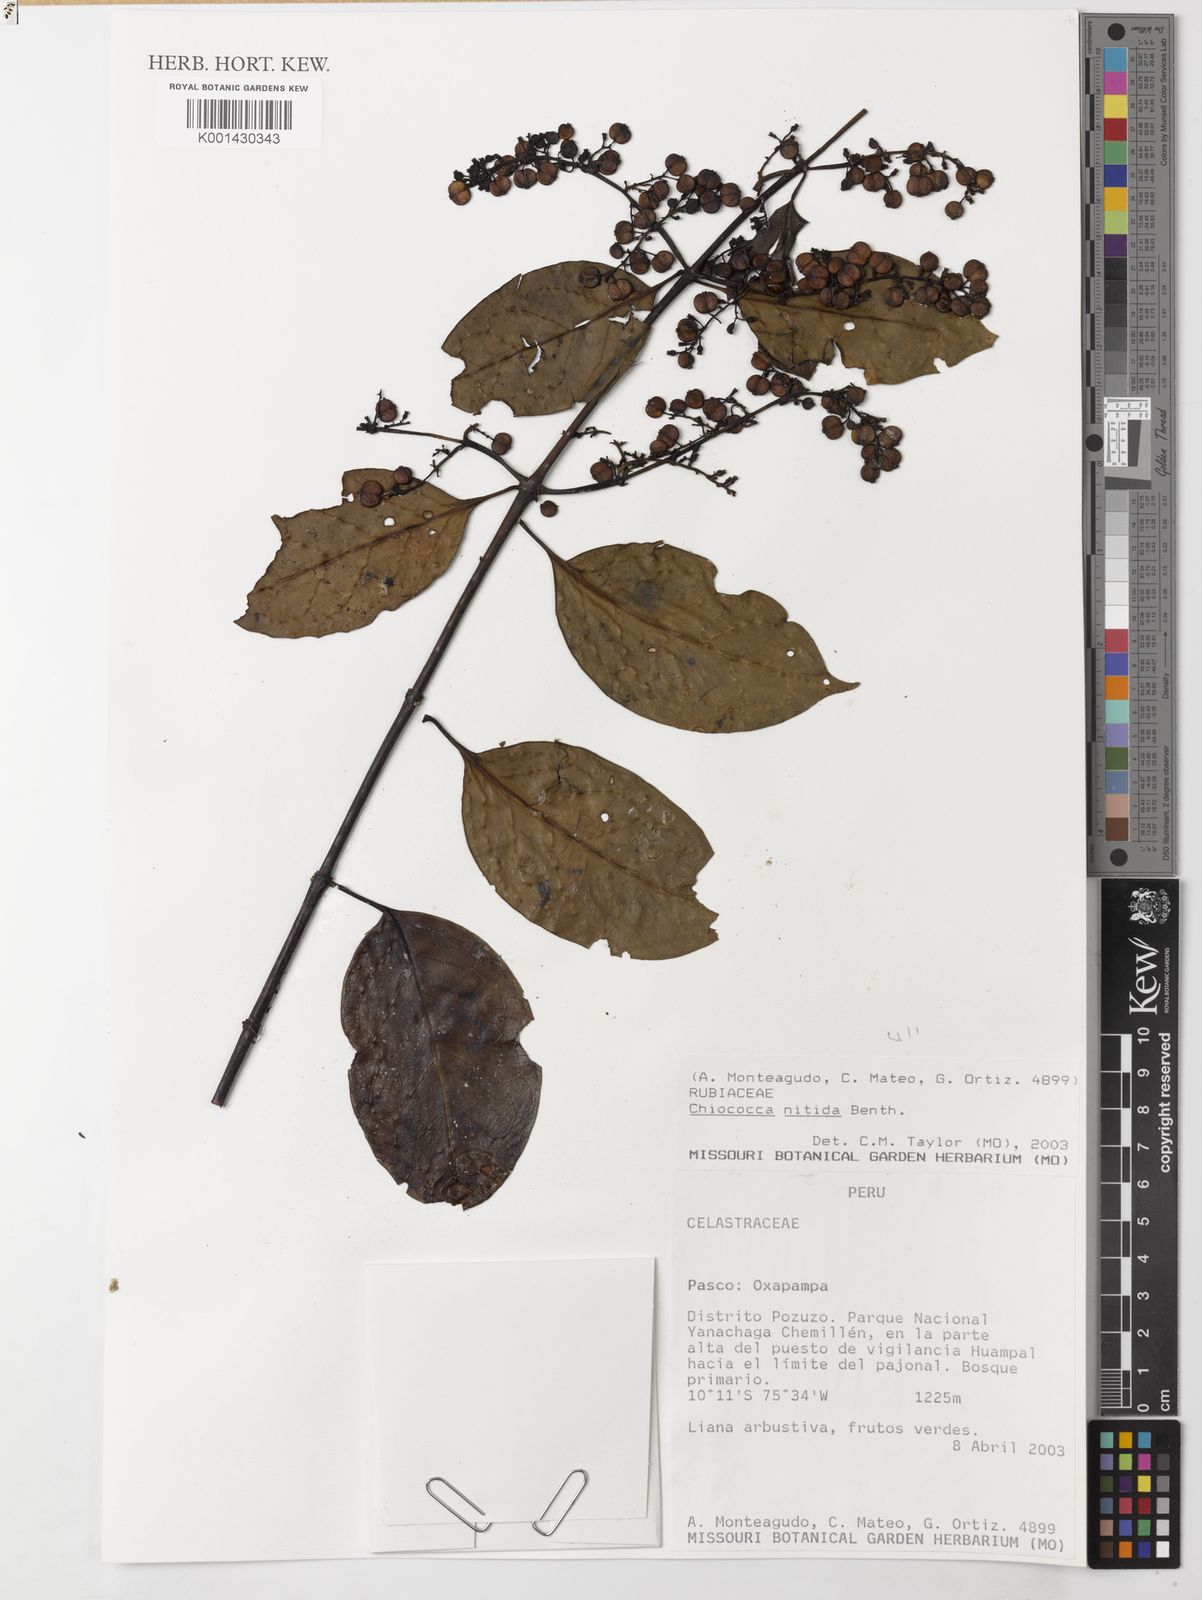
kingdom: Plantae
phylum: Tracheophyta
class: Magnoliopsida
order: Gentianales
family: Rubiaceae
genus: Chiococca
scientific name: Chiococca nitida
